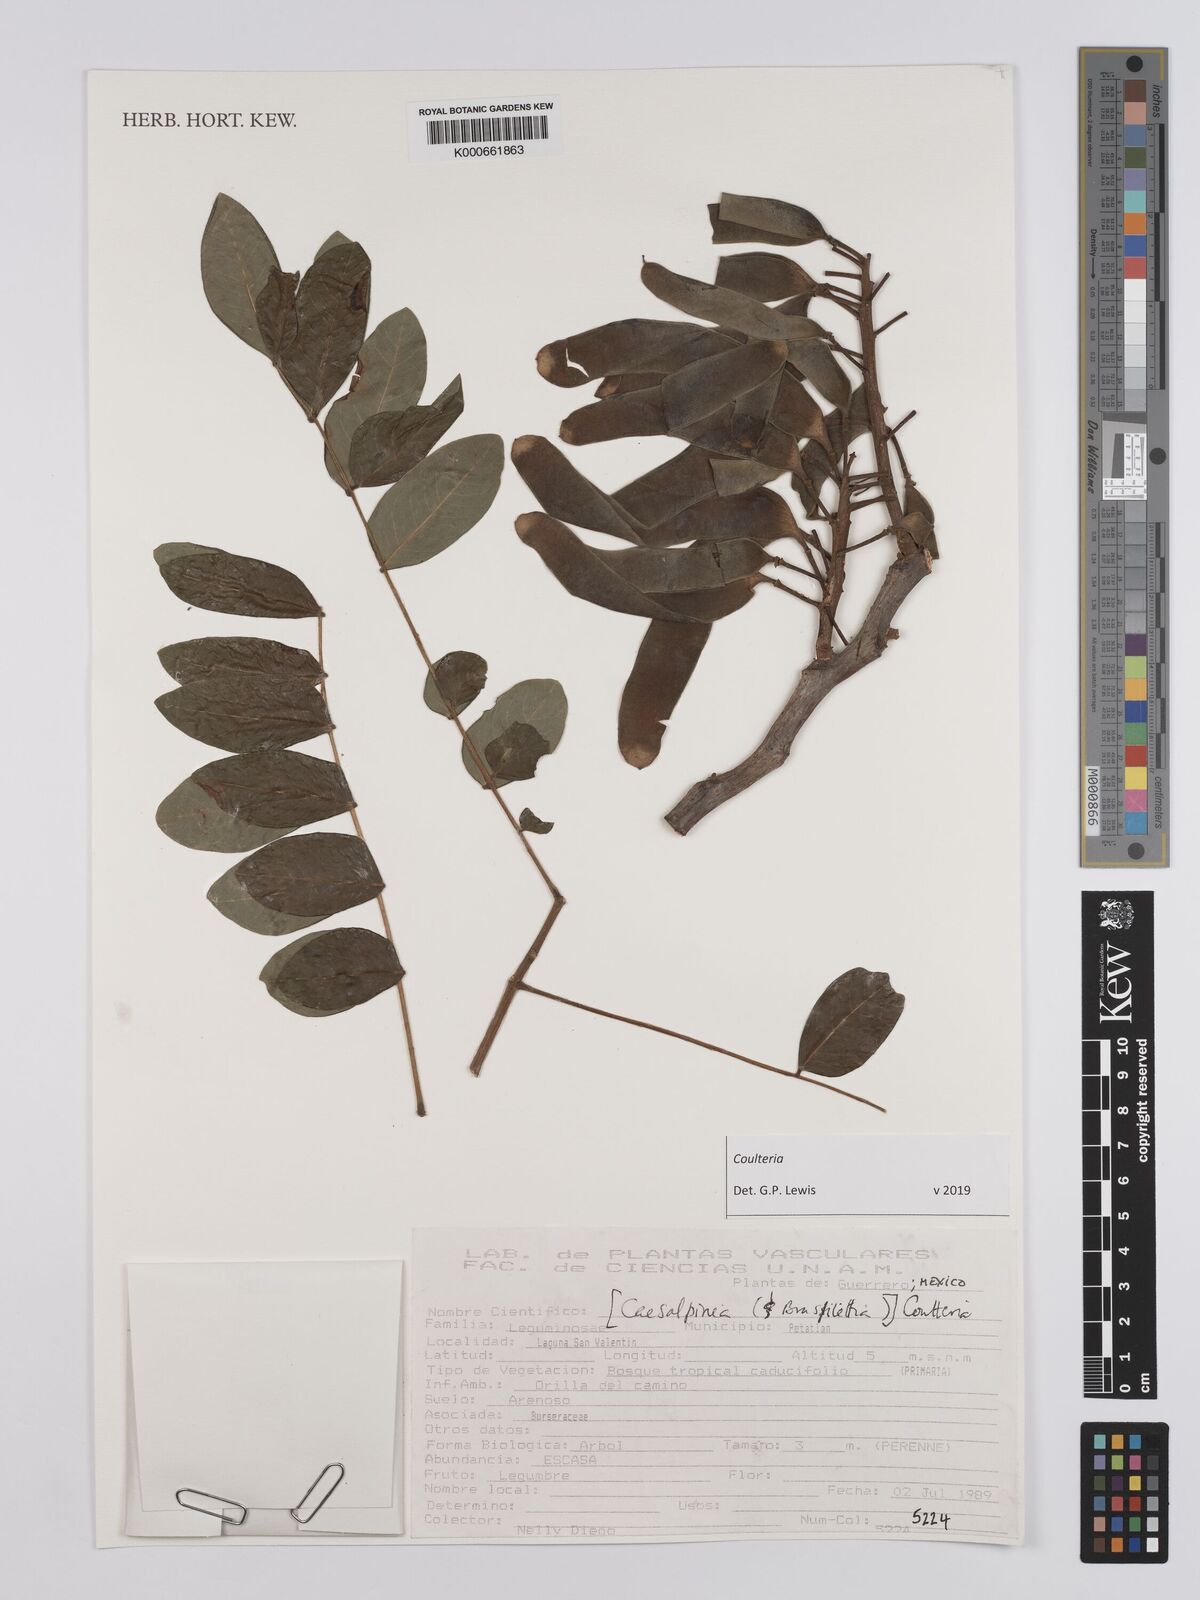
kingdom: Plantae
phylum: Tracheophyta
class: Magnoliopsida
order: Fabales
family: Fabaceae
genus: Coulteria
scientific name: Coulteria
